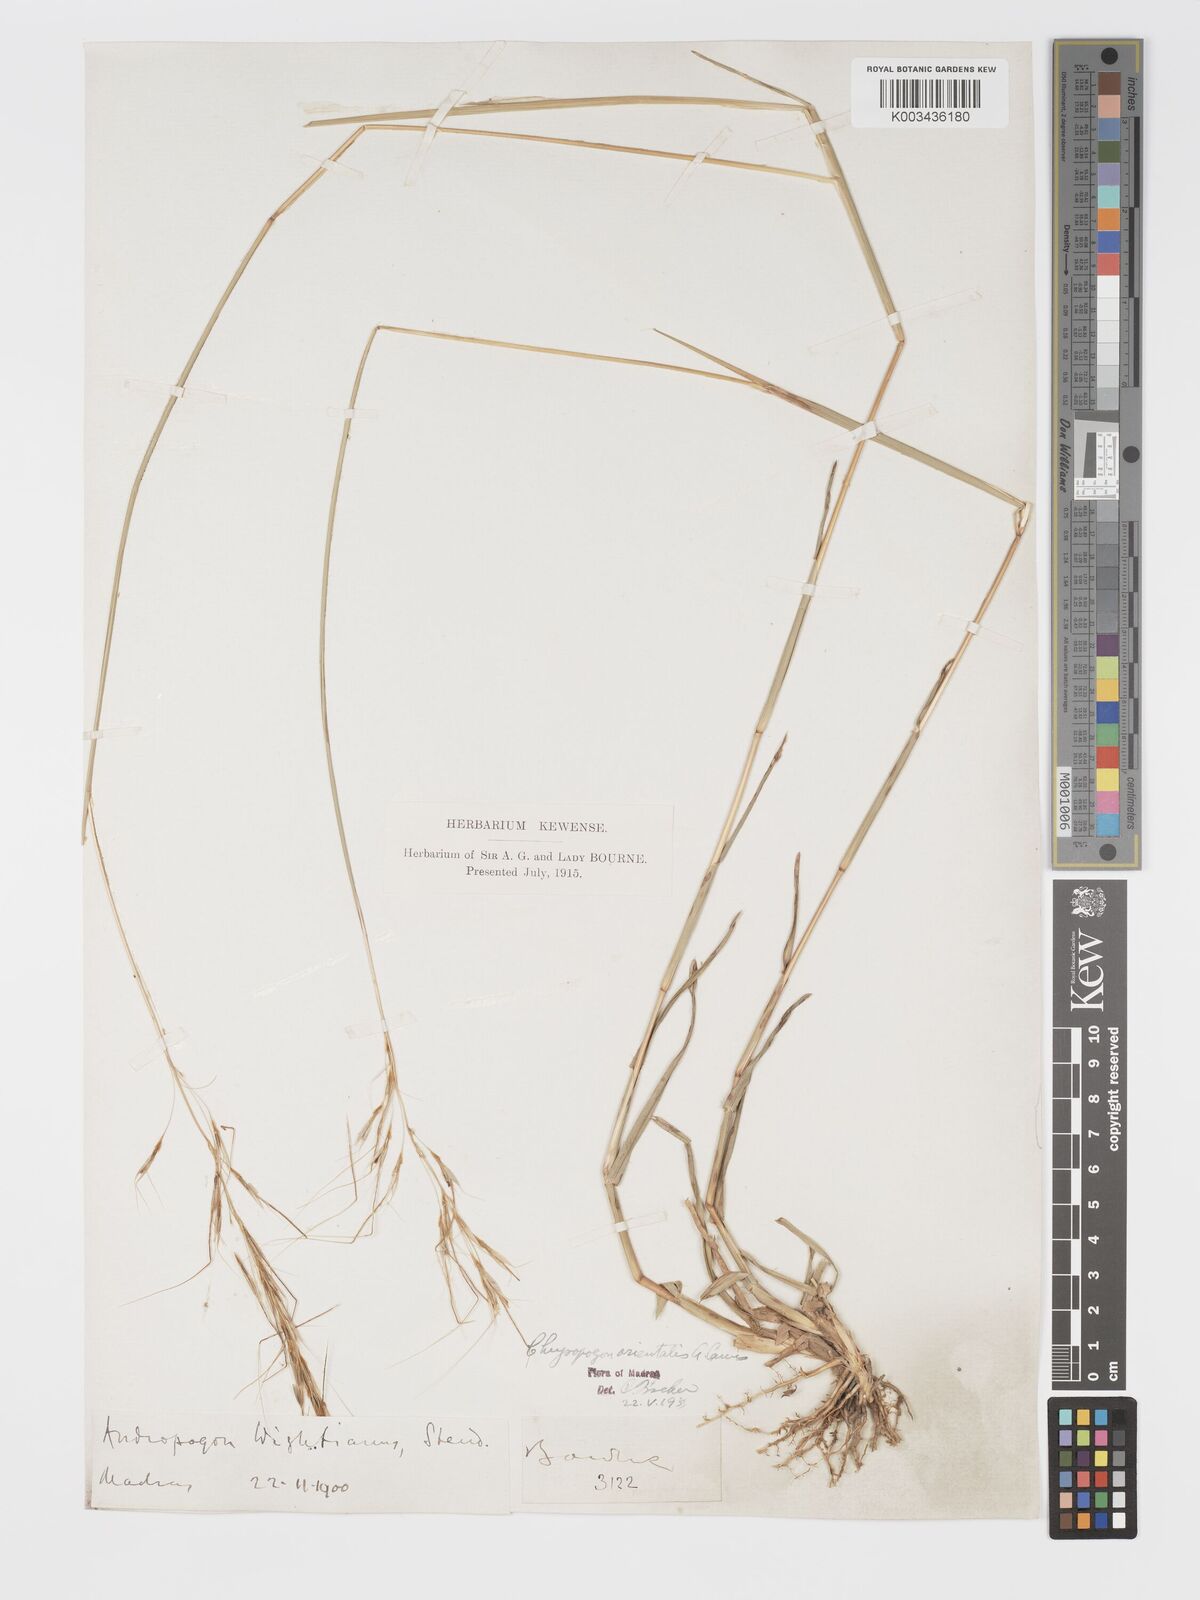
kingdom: Plantae
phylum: Tracheophyta
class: Liliopsida
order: Poales
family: Poaceae
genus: Chrysopogon
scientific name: Chrysopogon orientalis
